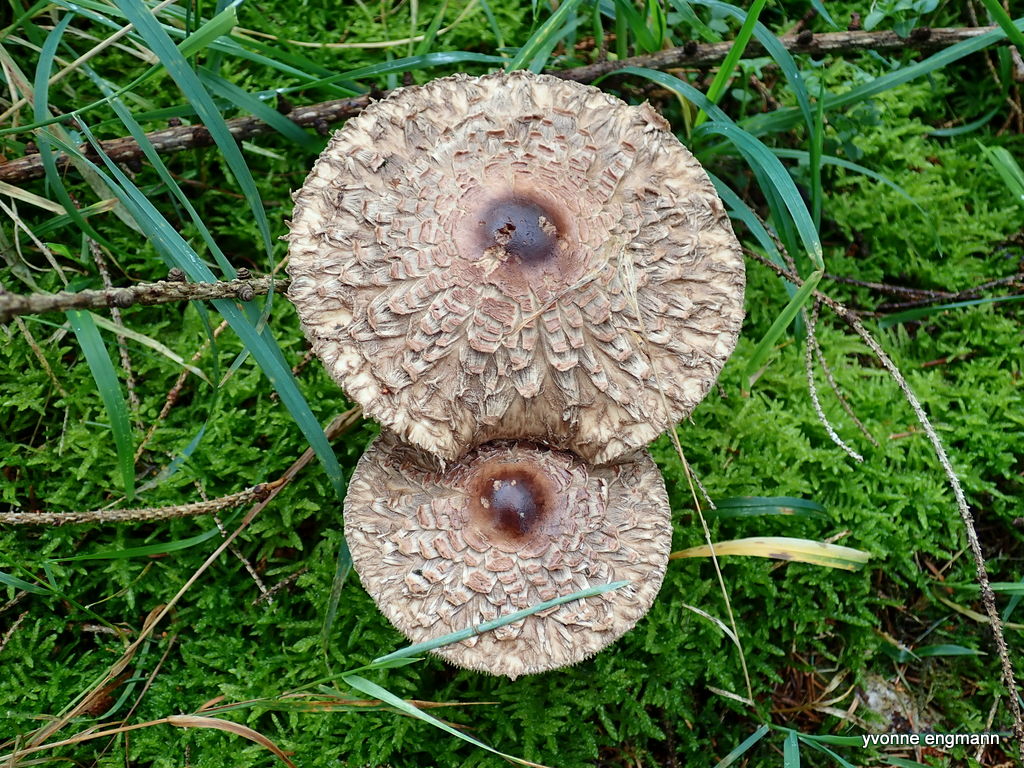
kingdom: Fungi
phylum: Basidiomycota
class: Agaricomycetes
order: Agaricales
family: Agaricaceae
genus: Chlorophyllum
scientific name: Chlorophyllum olivieri
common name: almindelig rabarberhat
